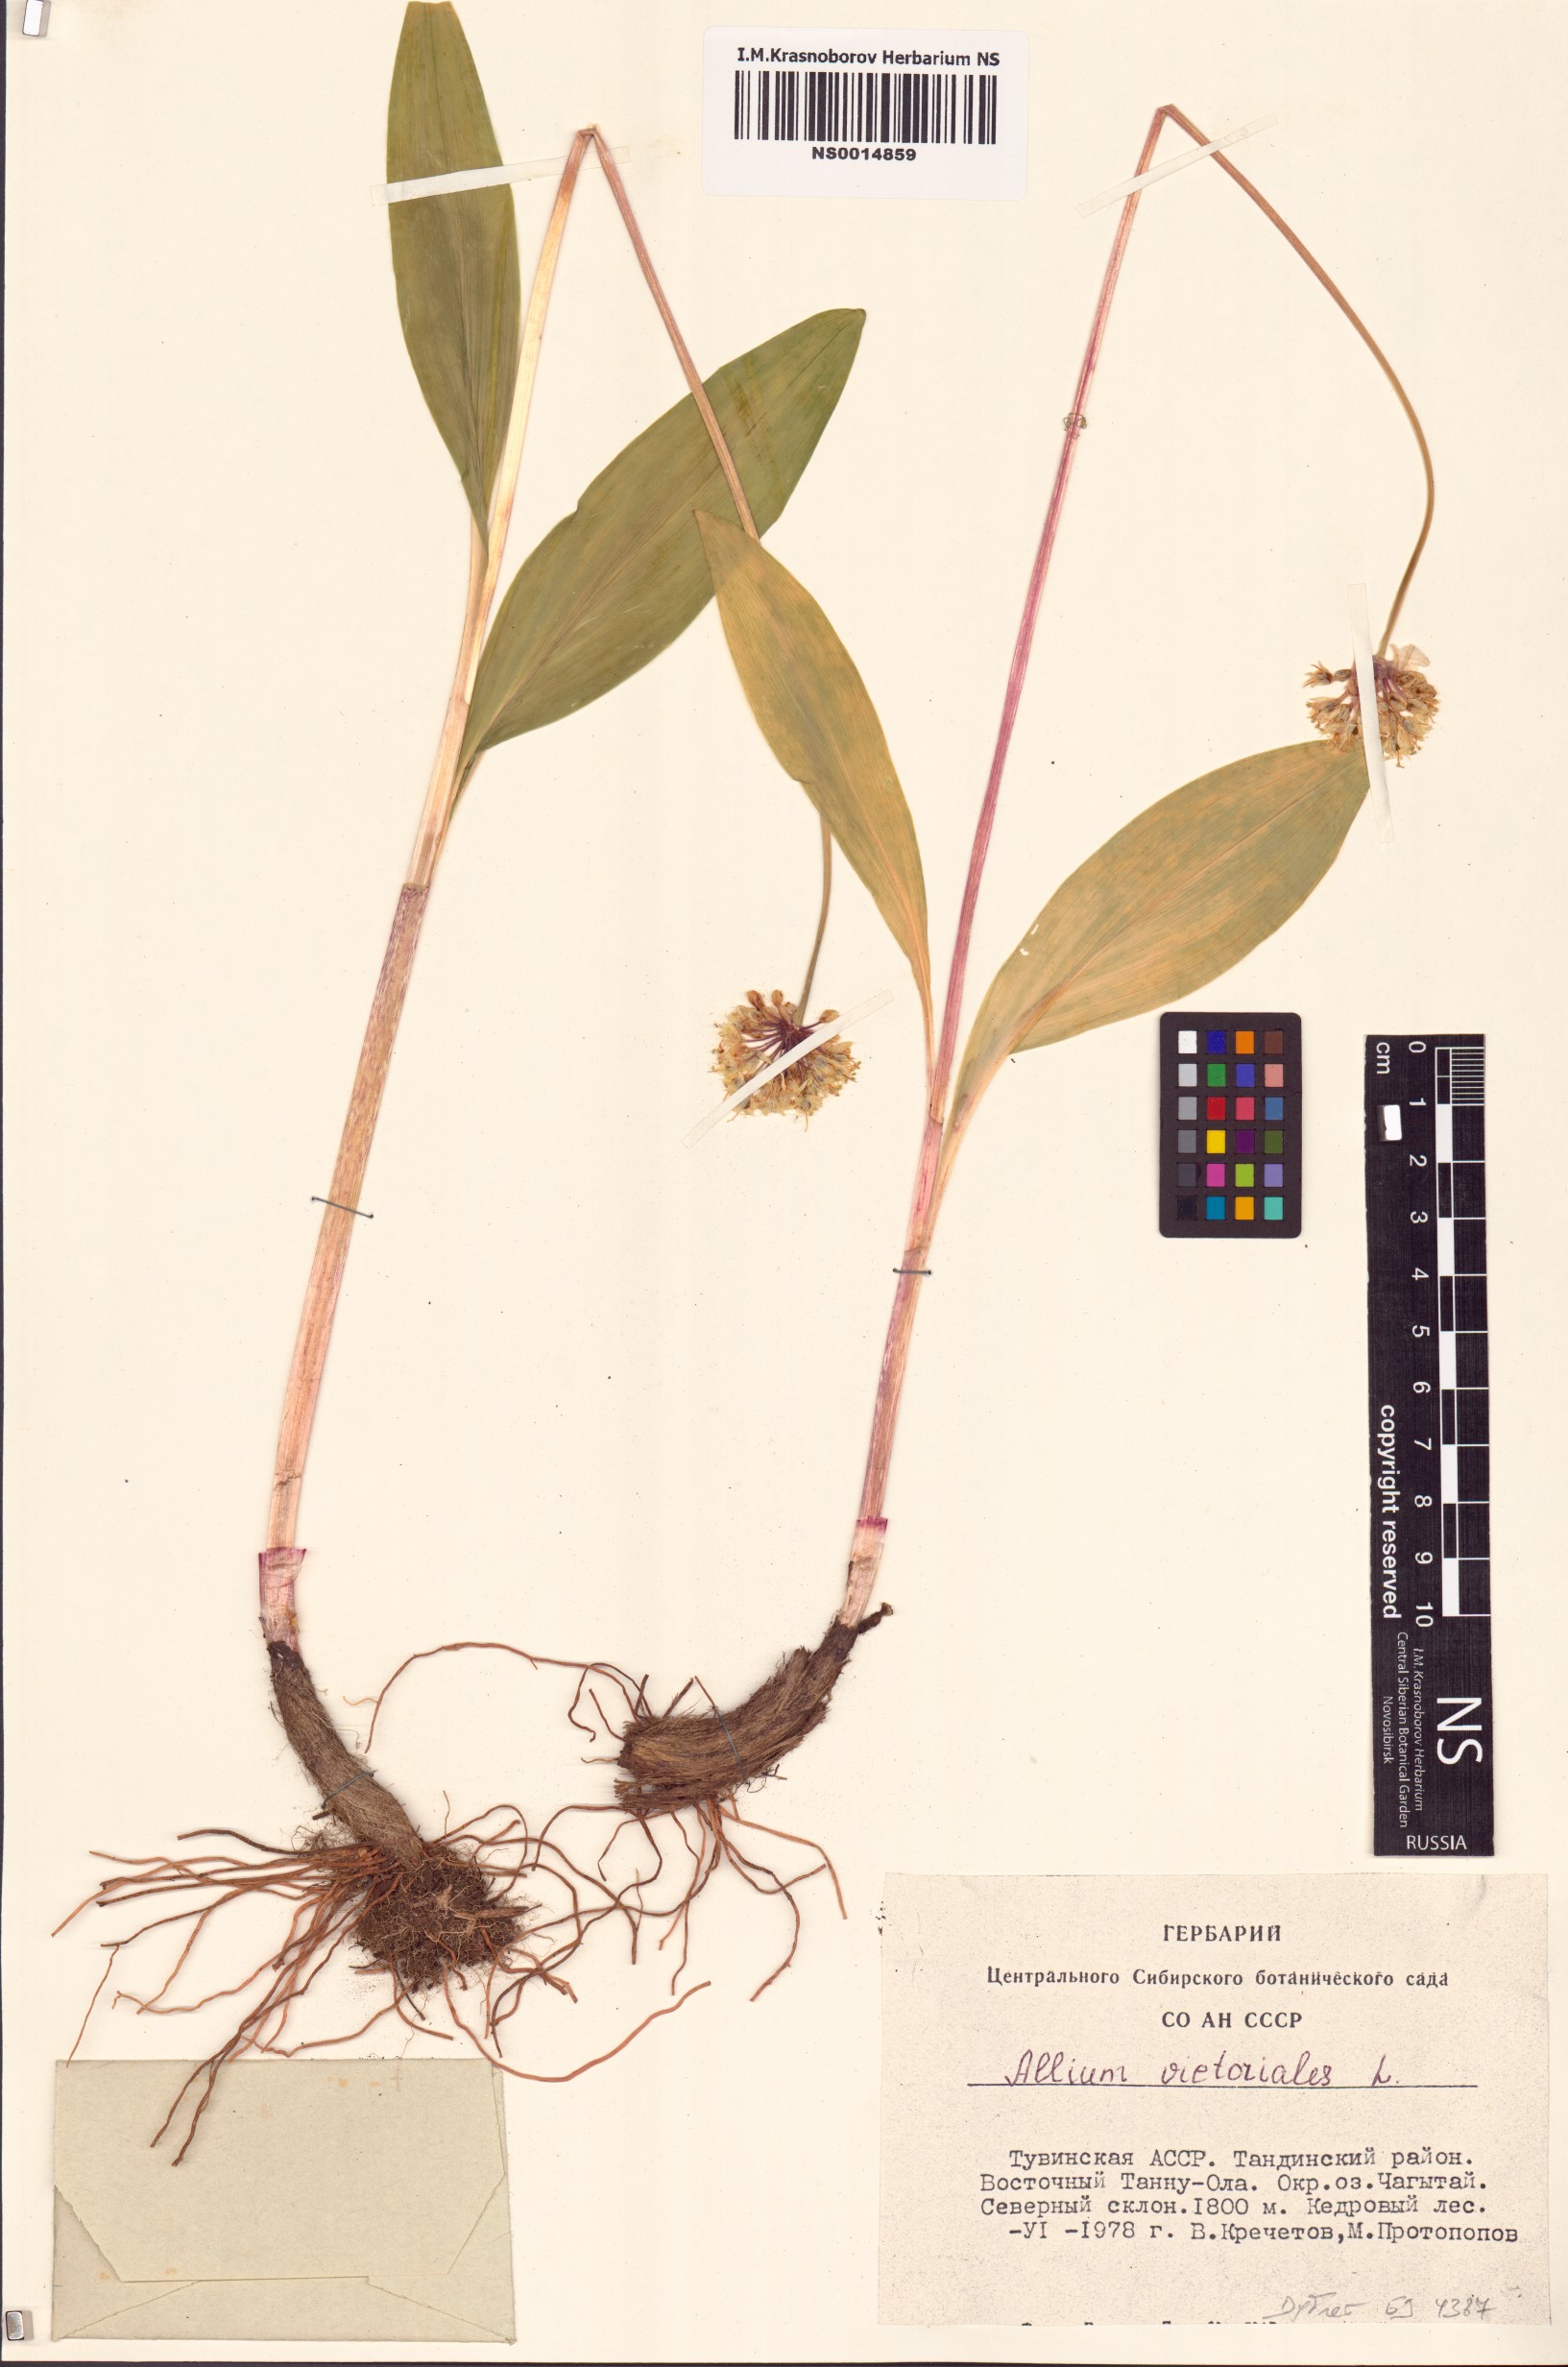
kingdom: Plantae
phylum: Tracheophyta
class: Liliopsida
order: Asparagales
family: Amaryllidaceae
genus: Allium
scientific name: Allium victorialis
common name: Alpine leek
